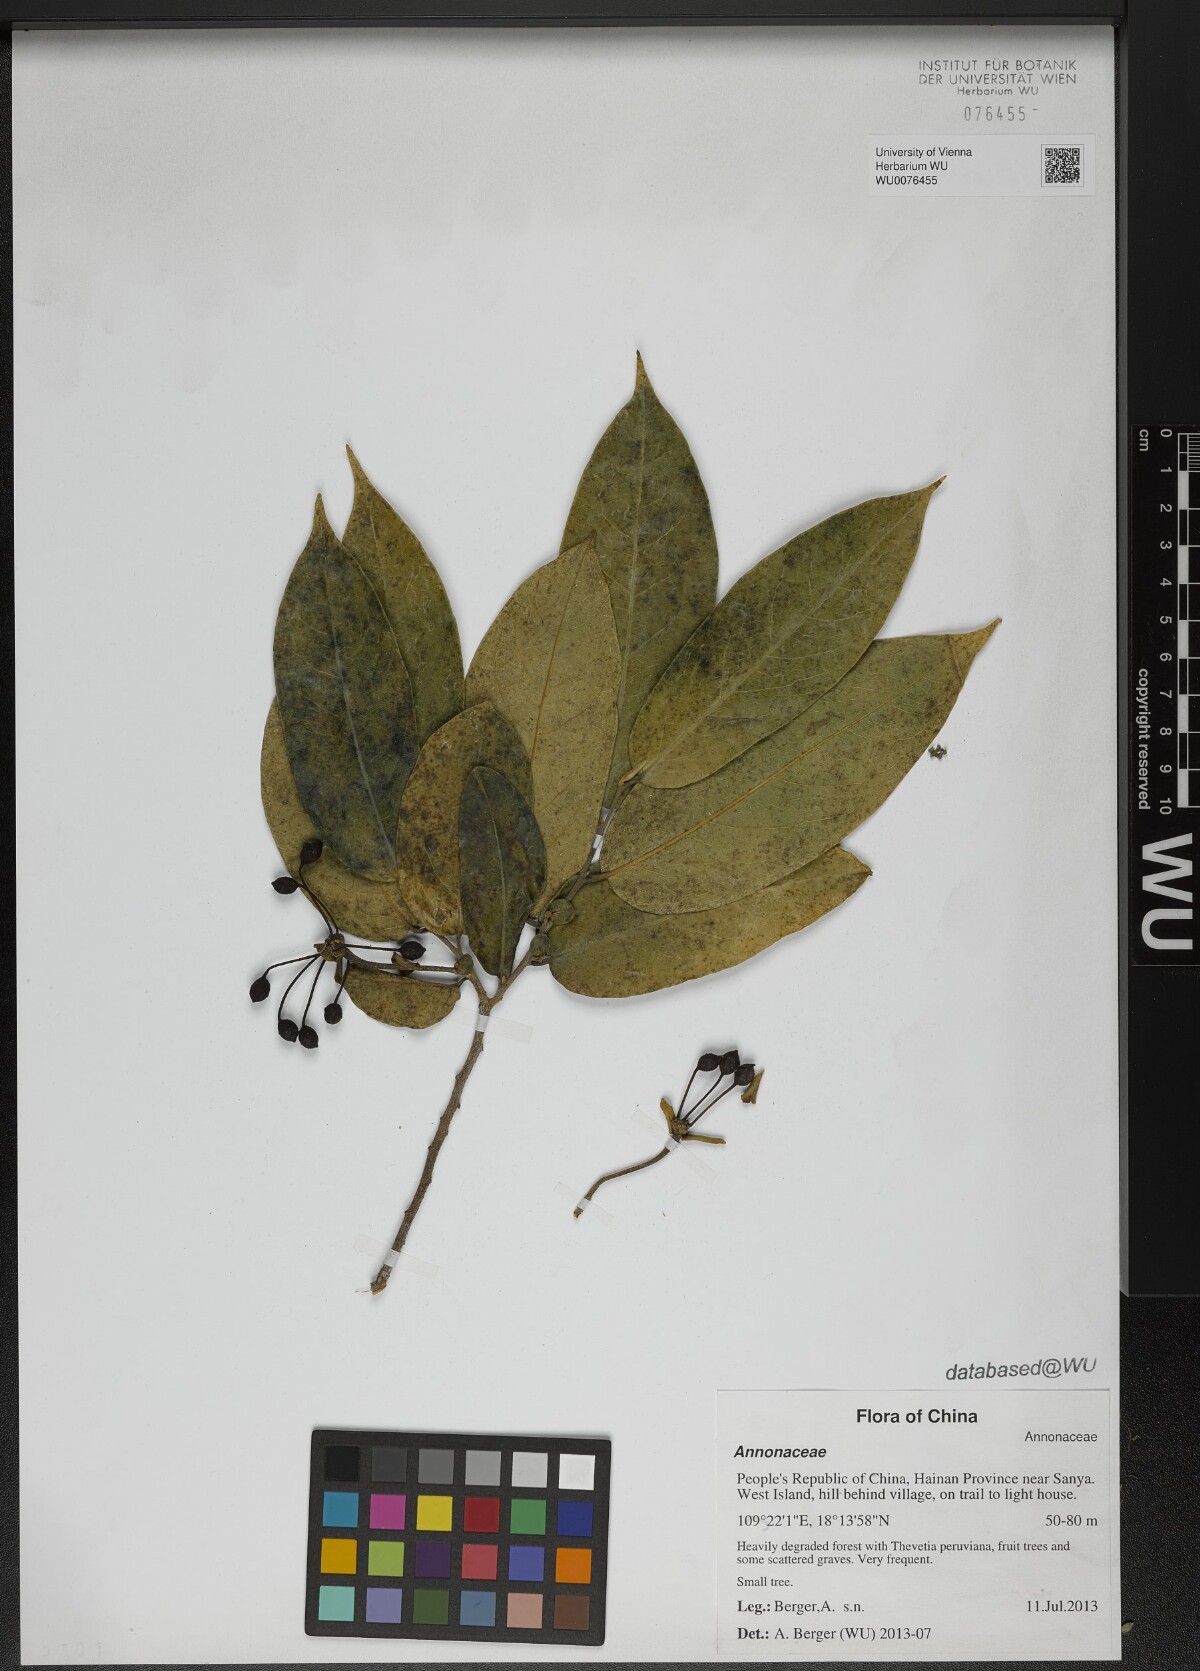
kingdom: Plantae
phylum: Tracheophyta
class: Magnoliopsida
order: Magnoliales
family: Annonaceae
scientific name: Annonaceae
